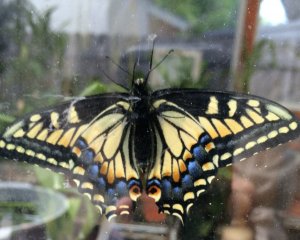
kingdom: Animalia
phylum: Arthropoda
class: Insecta
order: Lepidoptera
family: Papilionidae
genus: Papilio
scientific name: Papilio zelicaon
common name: Anise Swallowtail
